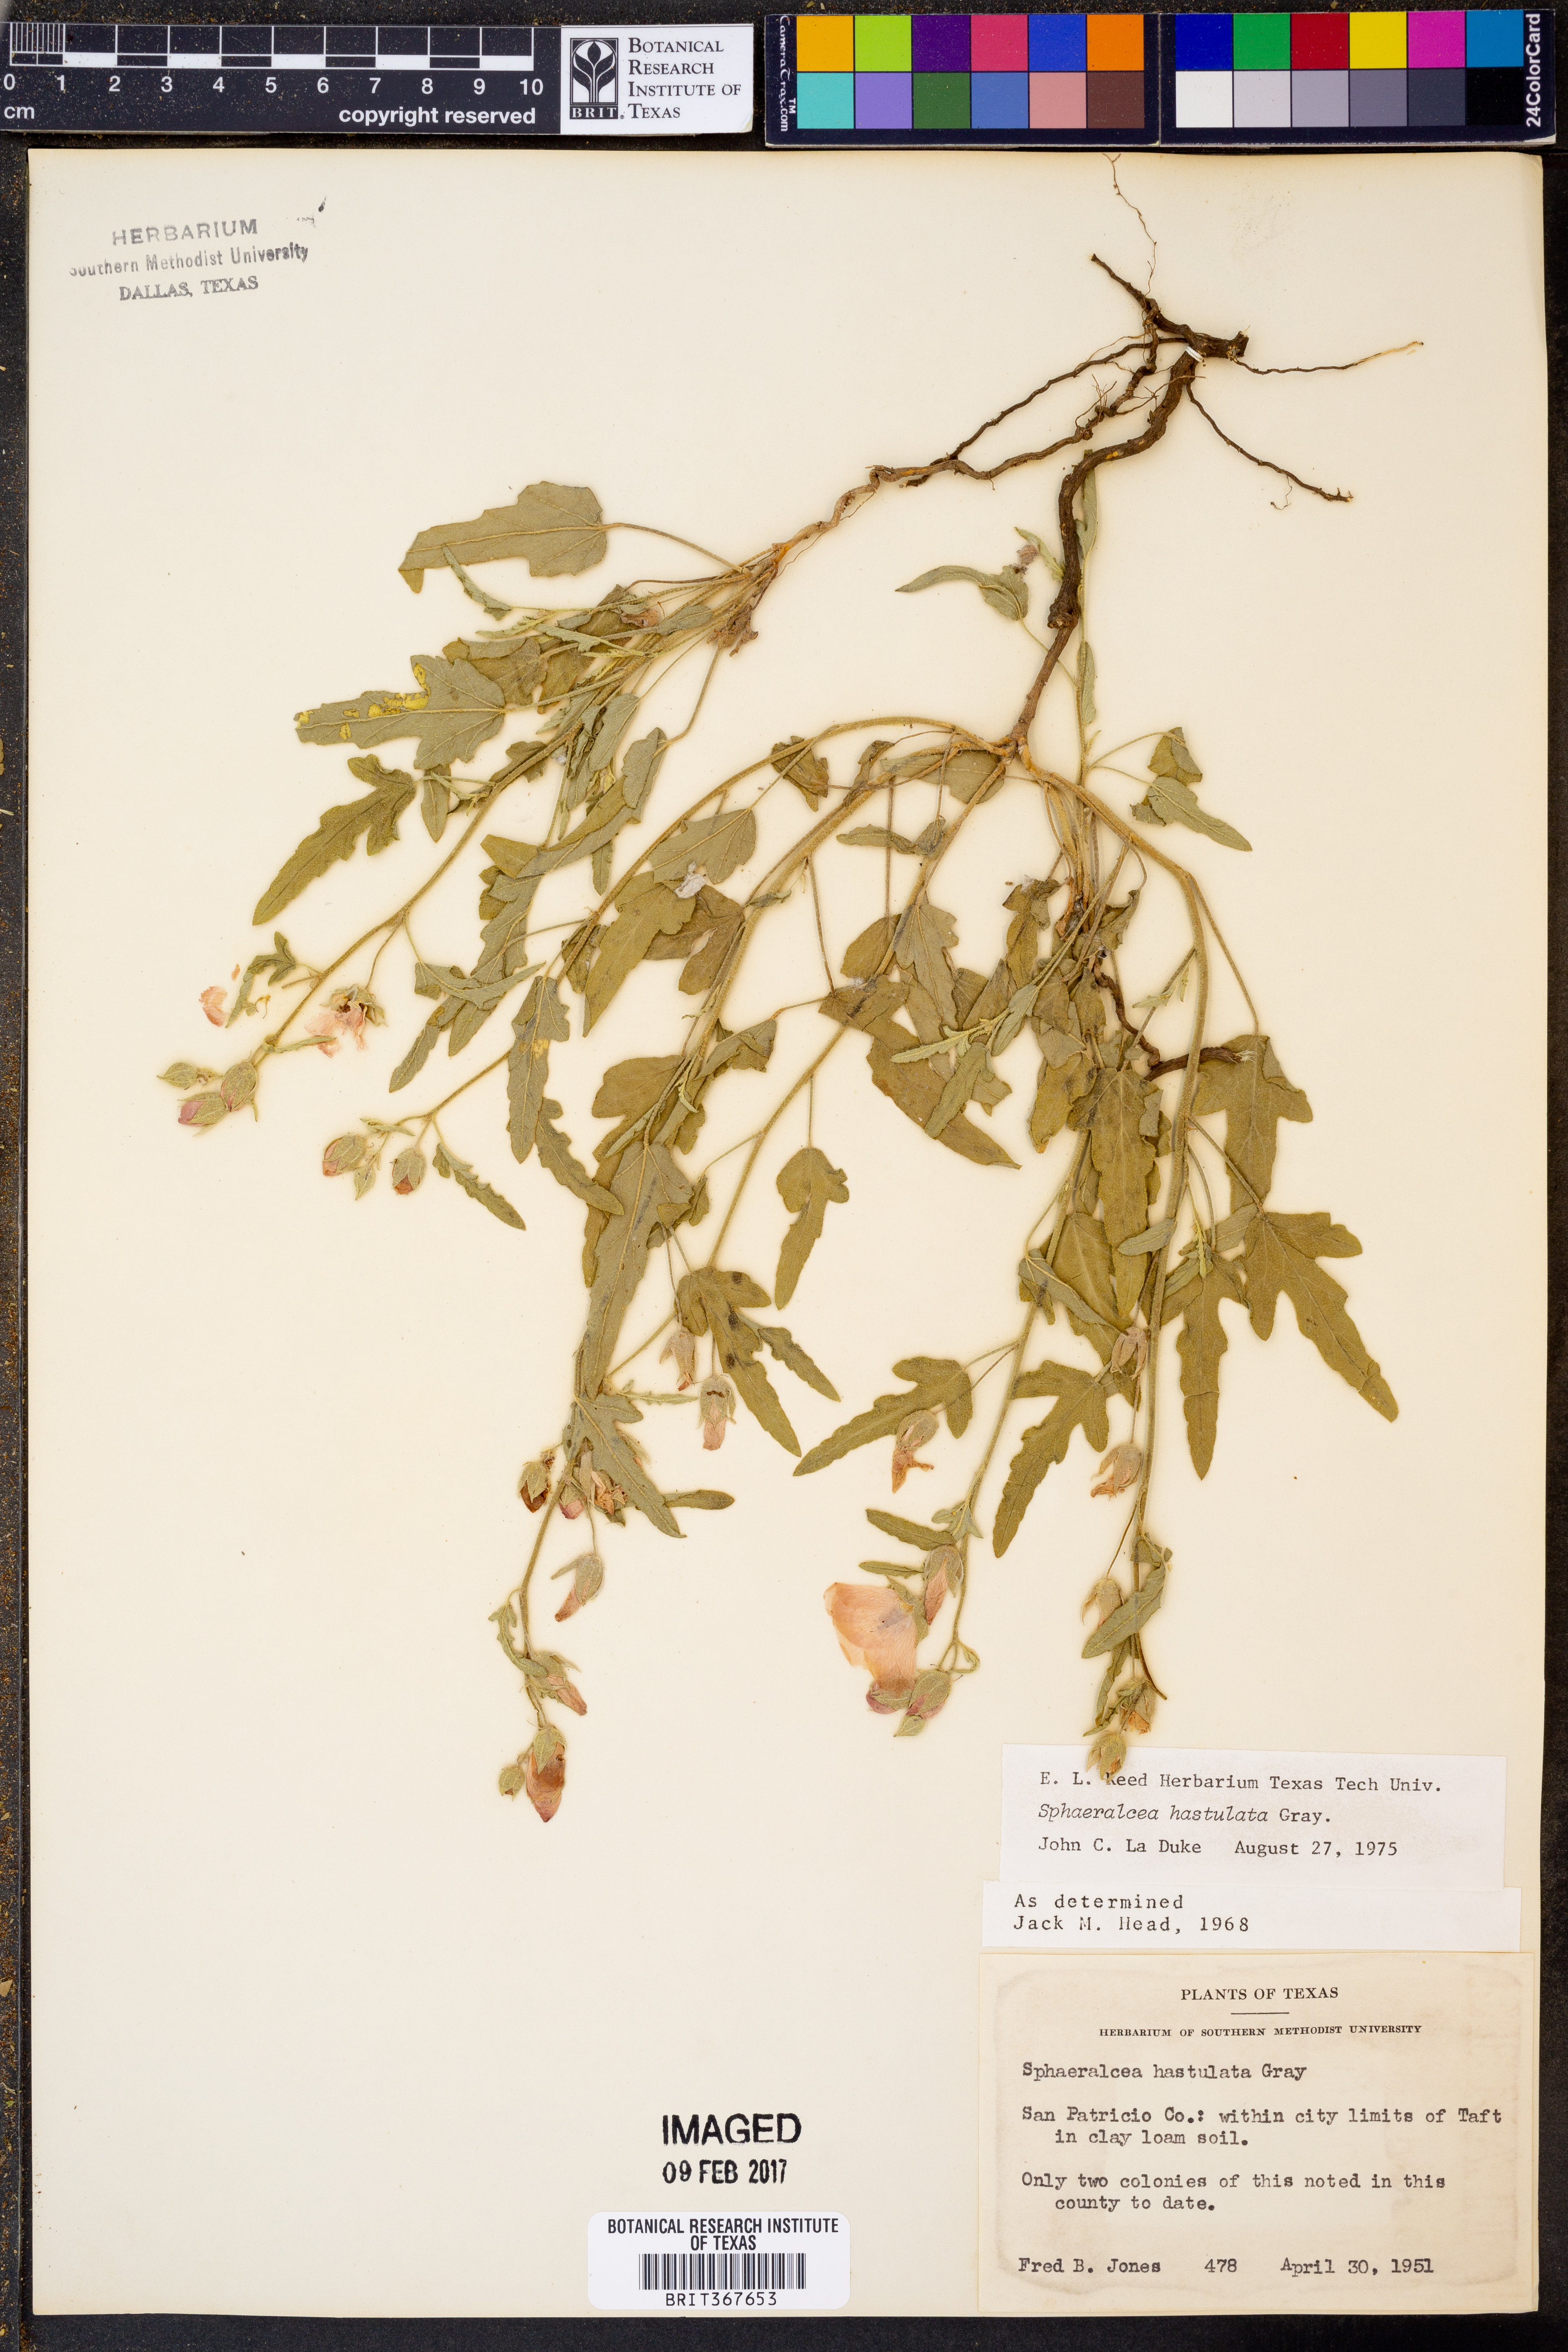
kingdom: Plantae
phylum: Tracheophyta
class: Magnoliopsida
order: Malvales
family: Malvaceae
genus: Sphaeralcea
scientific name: Sphaeralcea hastulata
